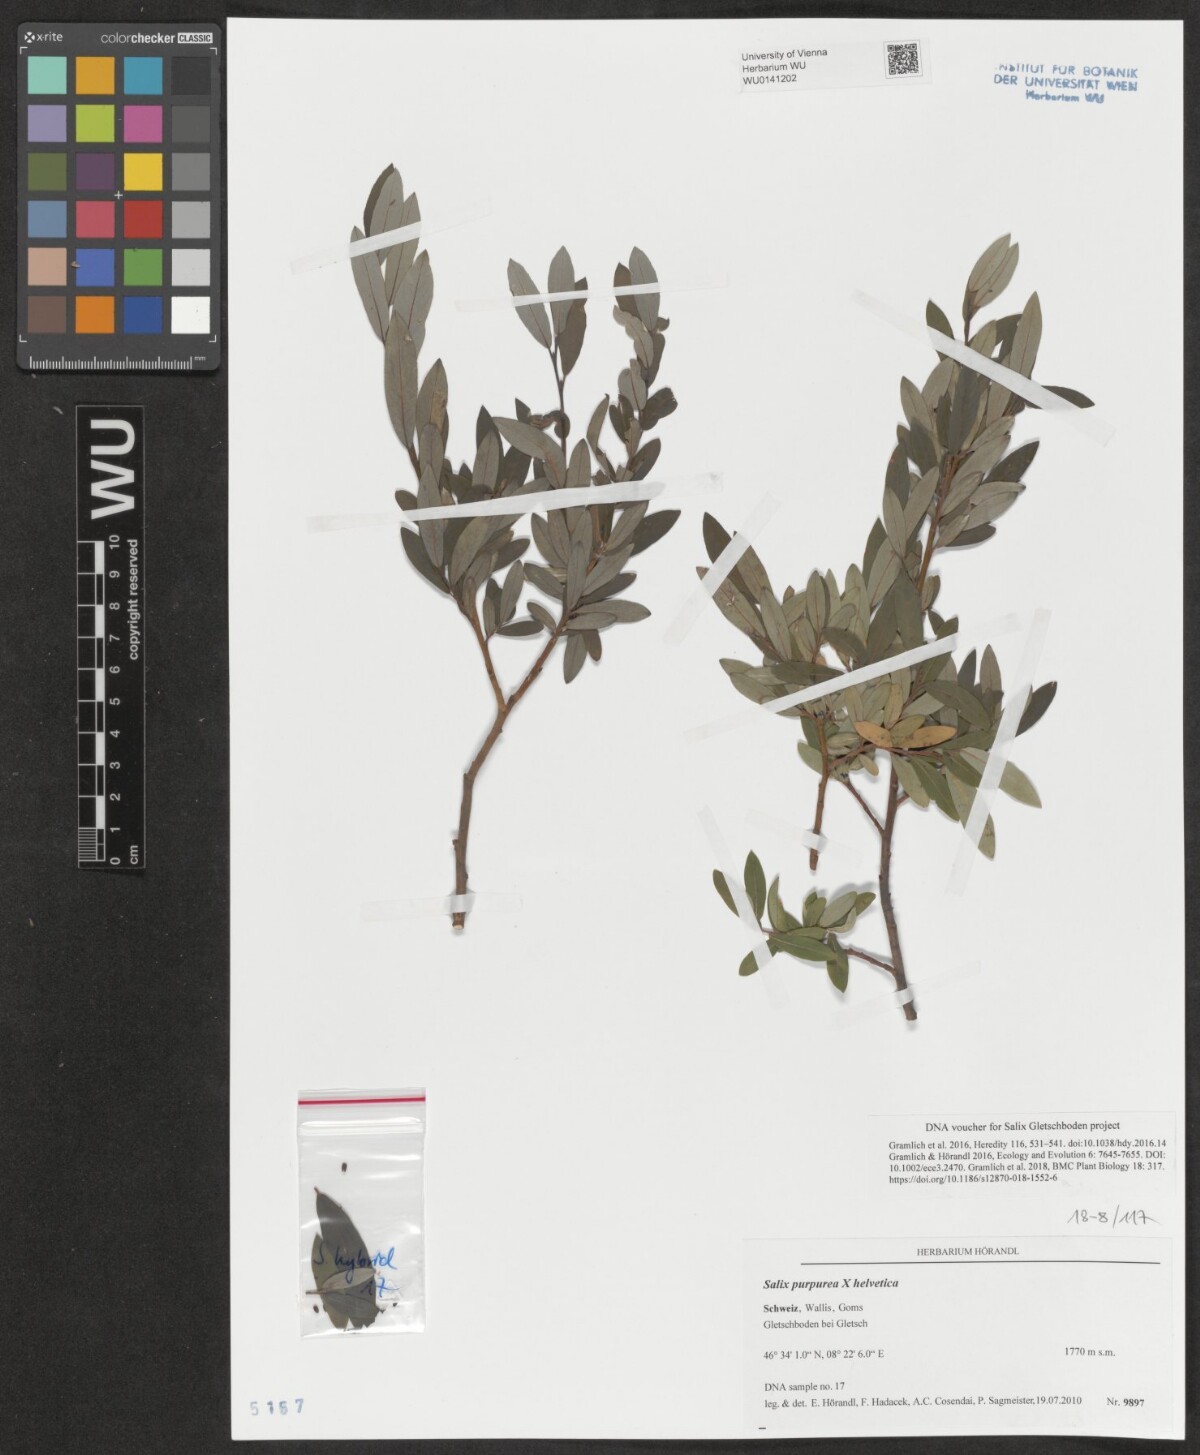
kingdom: Plantae
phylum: Tracheophyta
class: Magnoliopsida
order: Malpighiales
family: Salicaceae
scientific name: Salicaceae
